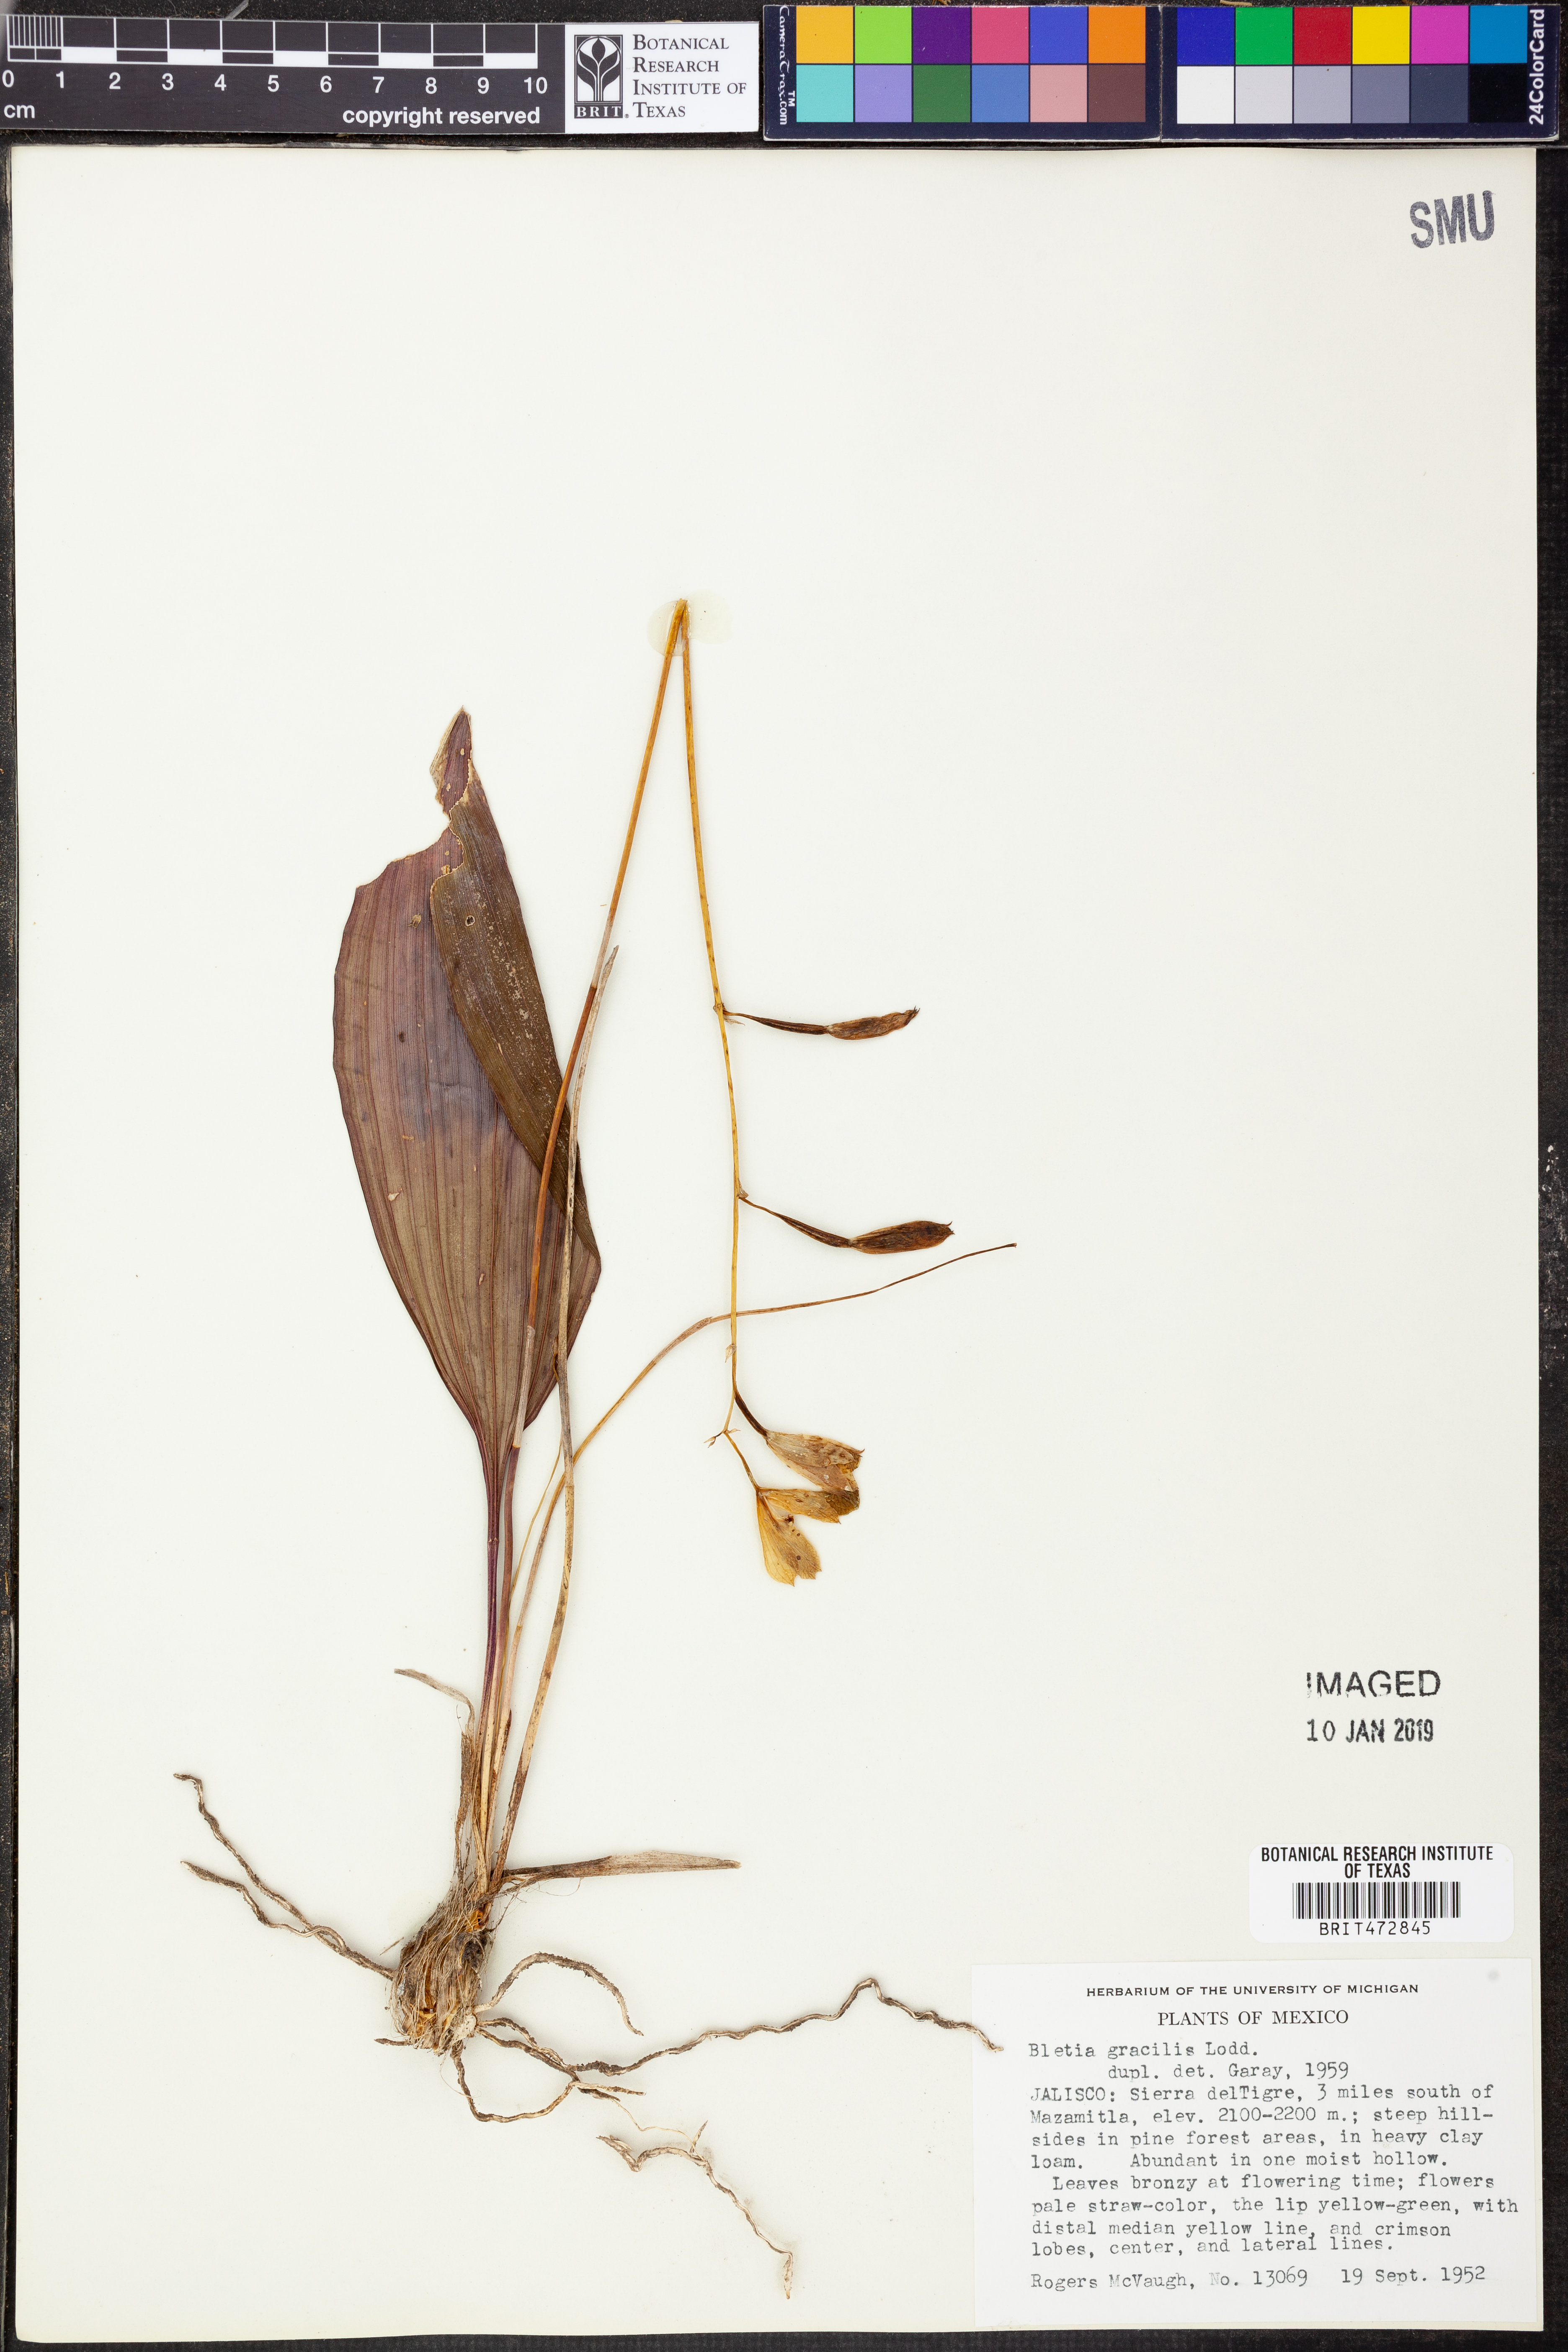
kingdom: Plantae
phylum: Tracheophyta
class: Liliopsida
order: Asparagales
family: Orchidaceae
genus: Bletia
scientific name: Bletia gracilis
